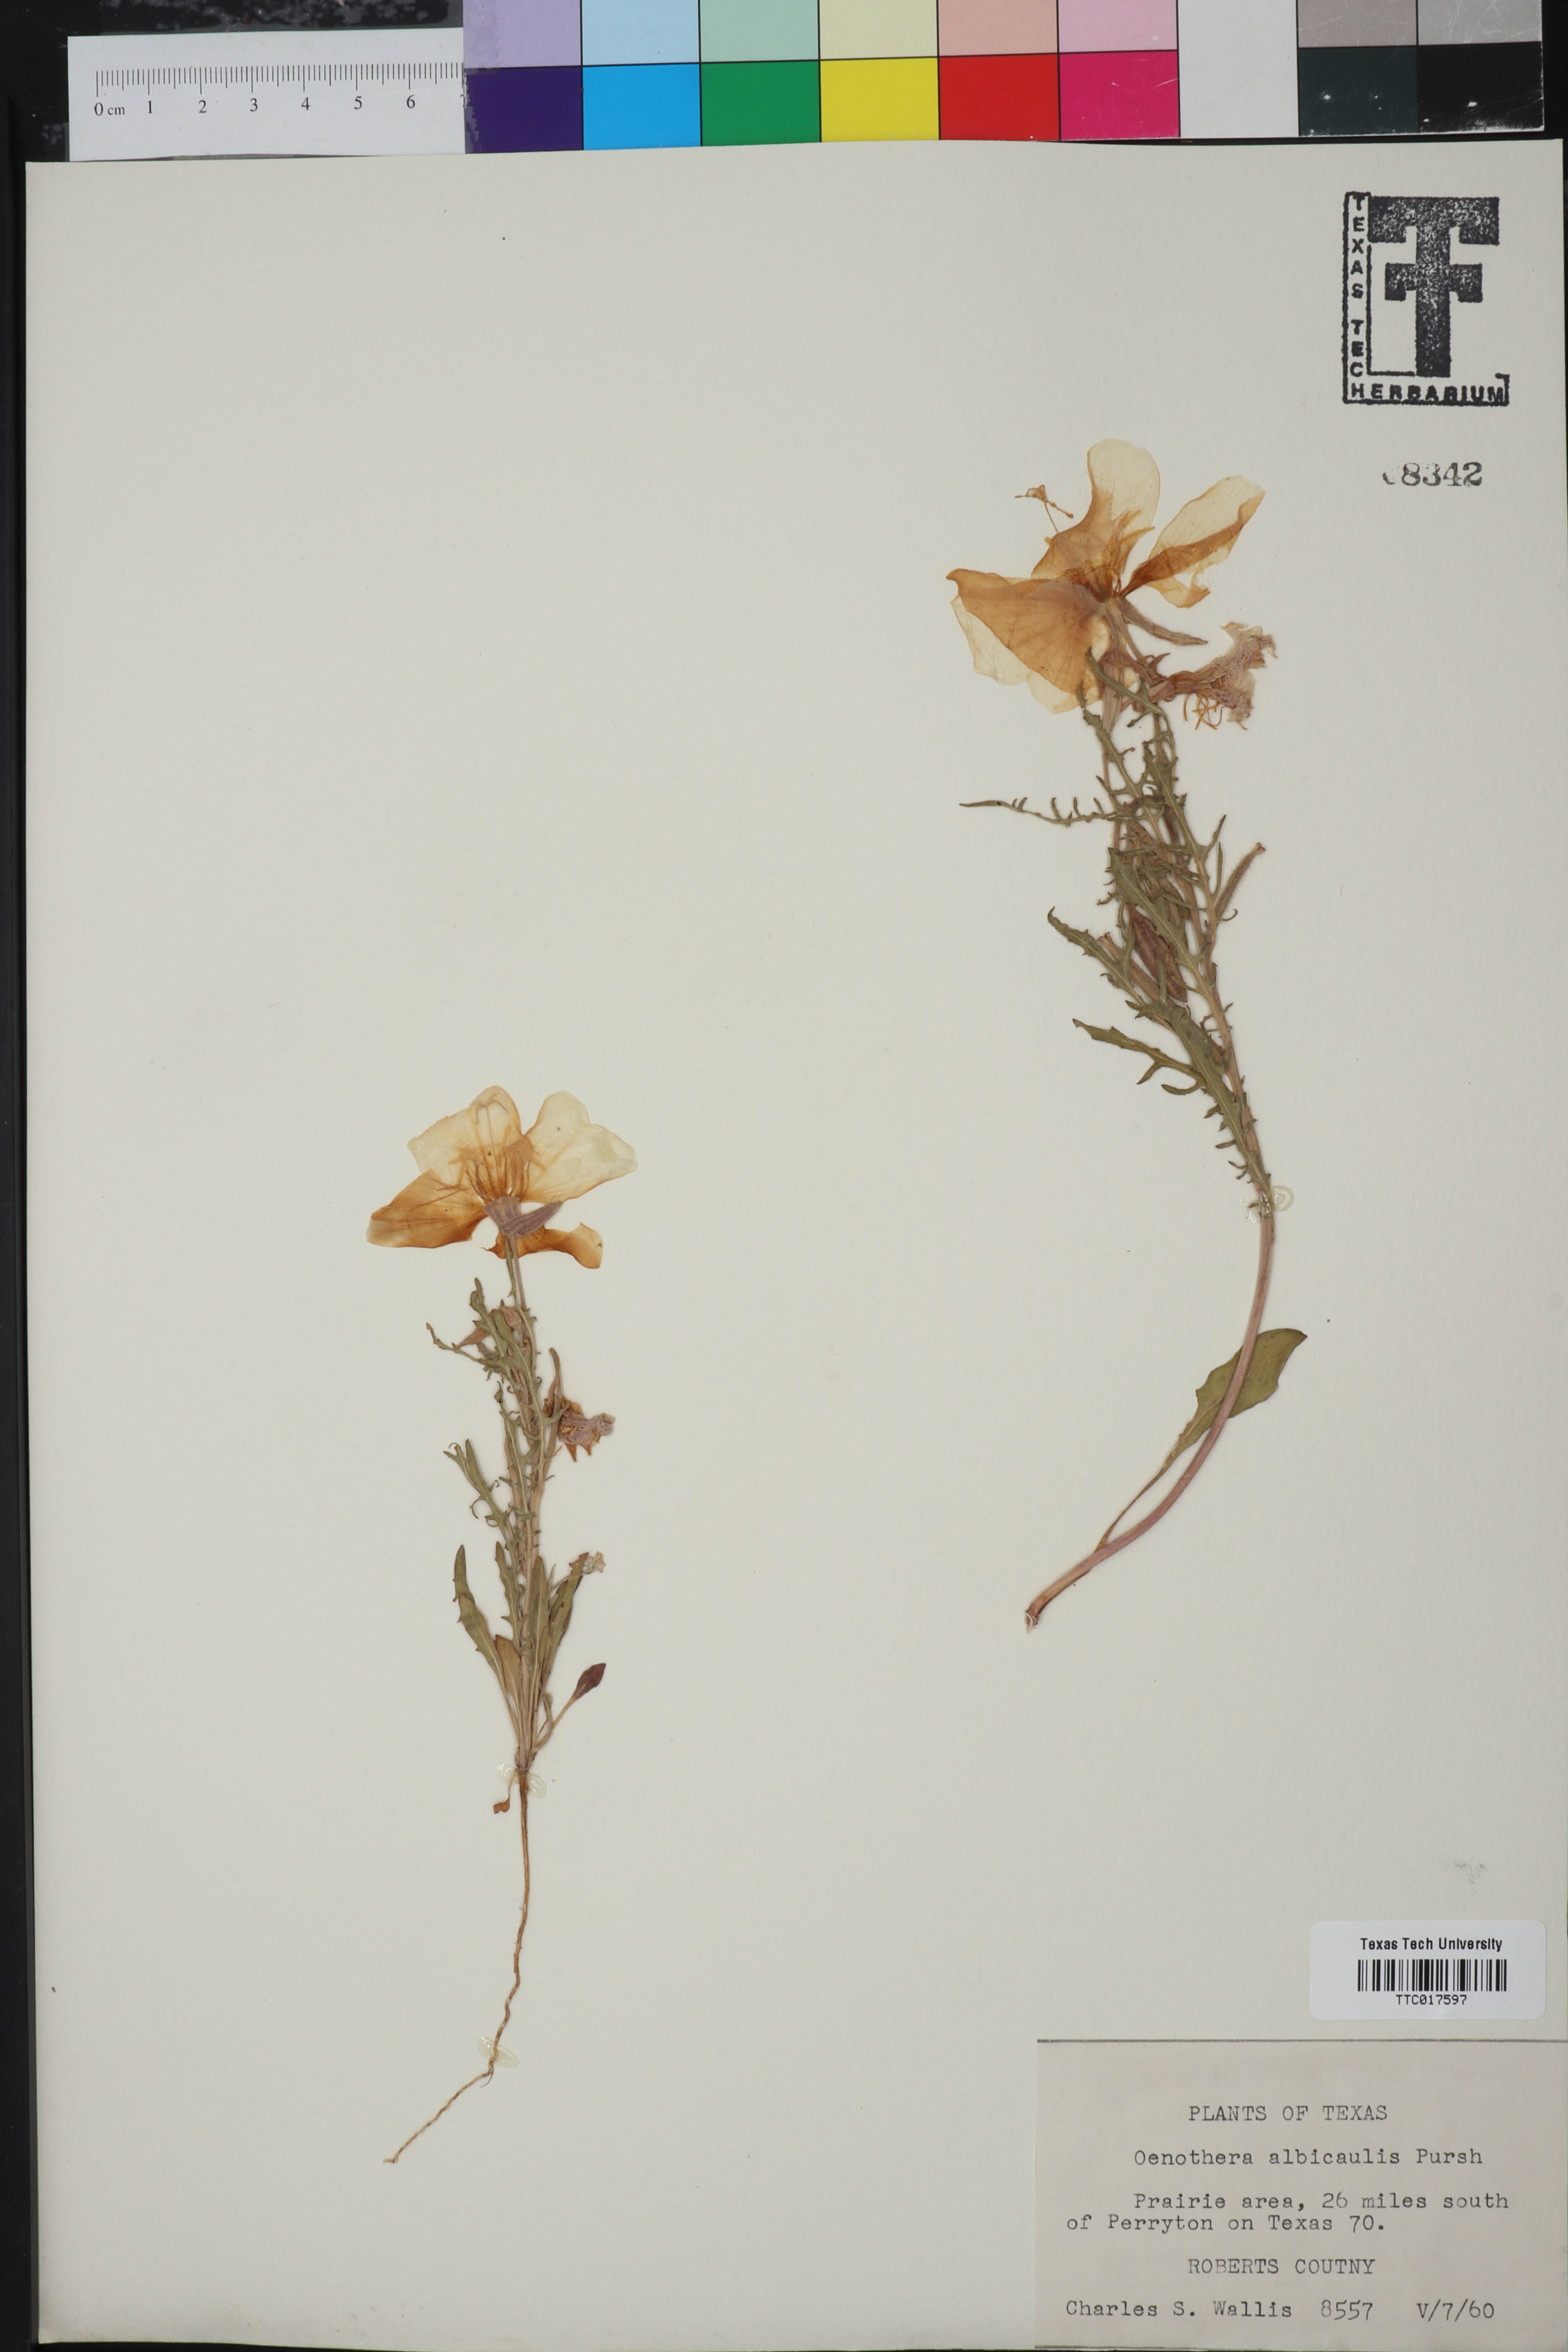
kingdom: Plantae
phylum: Tracheophyta
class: Magnoliopsida
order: Myrtales
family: Onagraceae
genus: Oenothera
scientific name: Oenothera albicaulis
